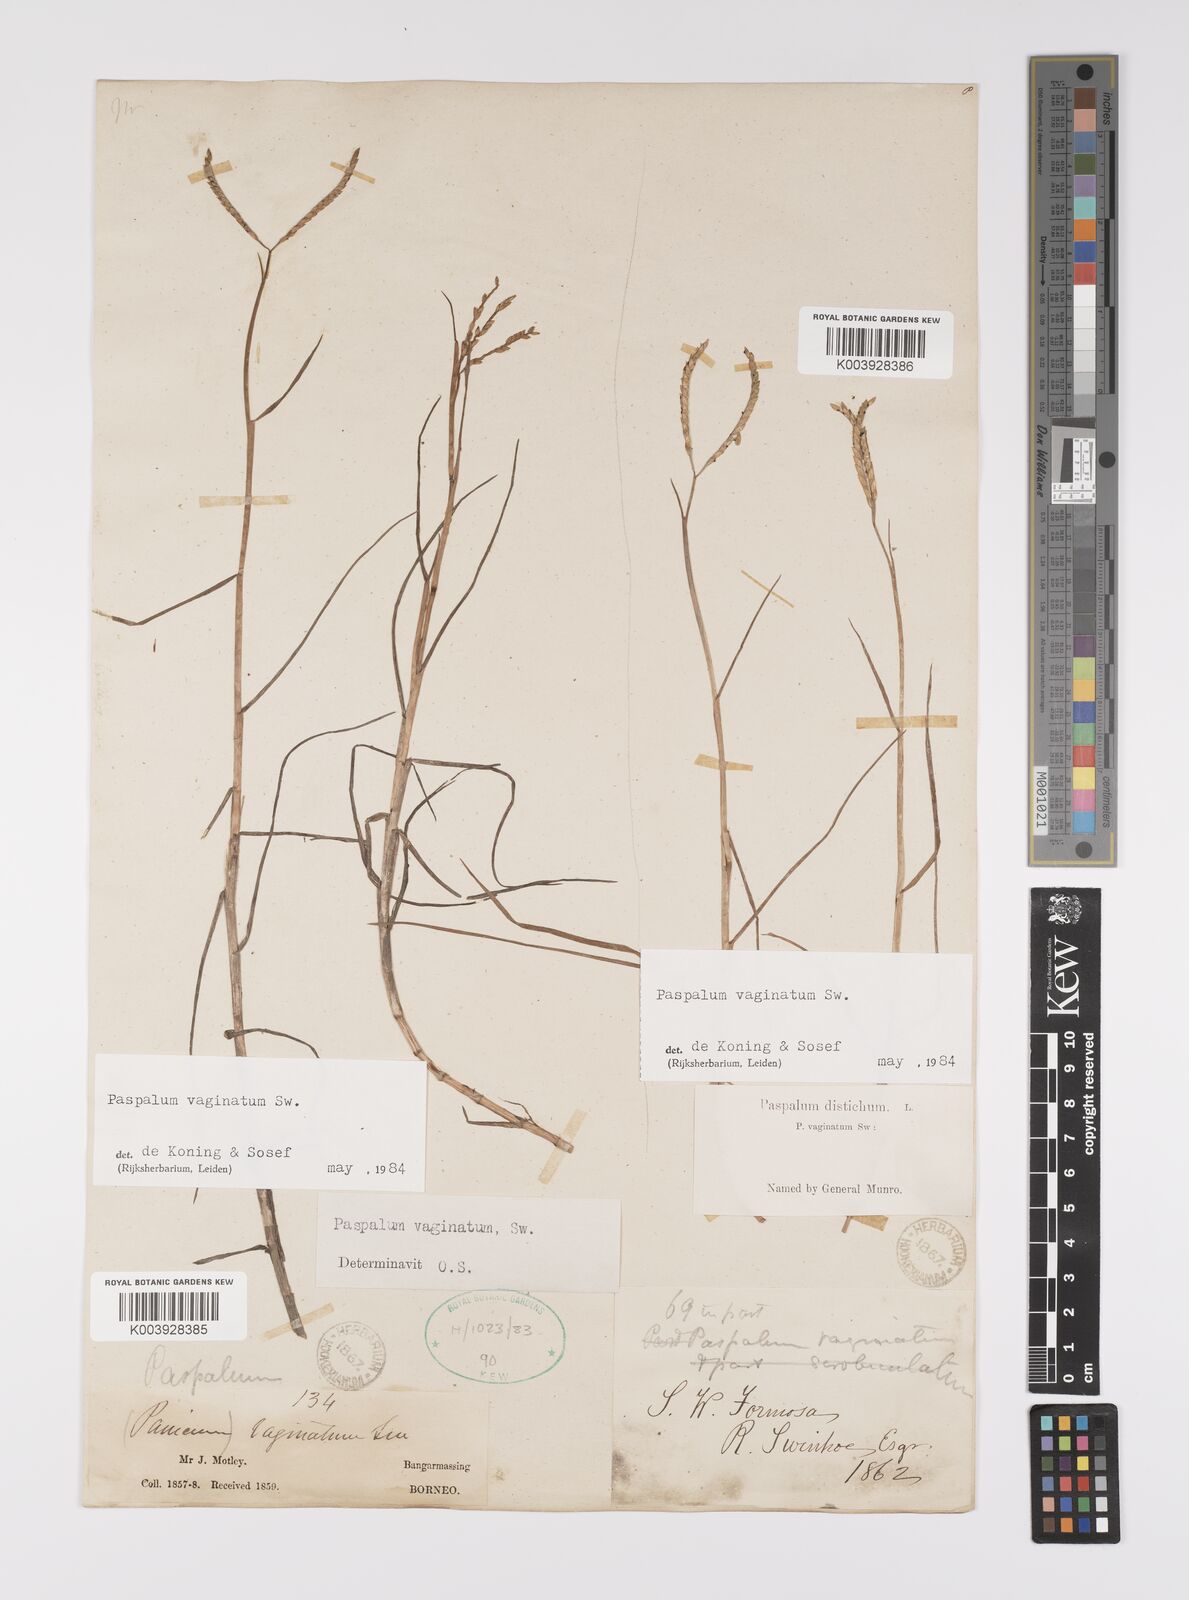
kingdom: Plantae
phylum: Tracheophyta
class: Liliopsida
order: Poales
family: Poaceae
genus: Paspalum
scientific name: Paspalum vaginatum
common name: Seashore paspalum
